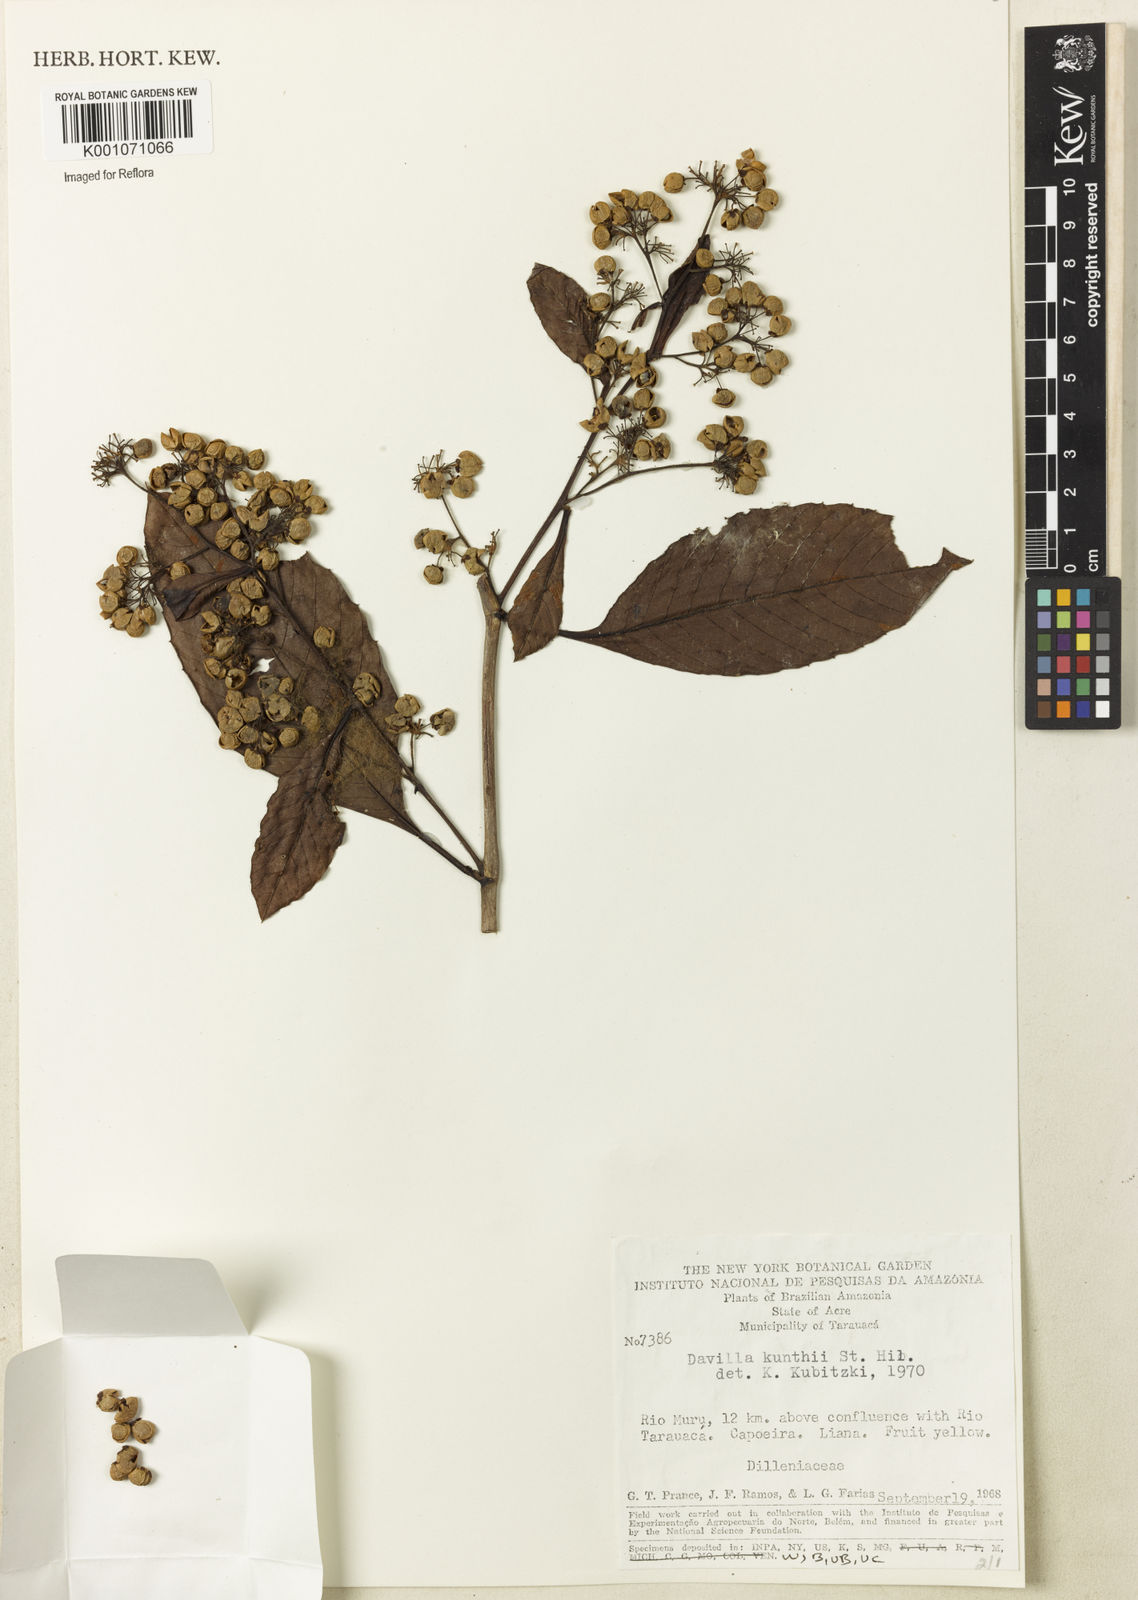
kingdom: Plantae
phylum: Tracheophyta
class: Magnoliopsida
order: Dilleniales
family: Dilleniaceae
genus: Davilla
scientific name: Davilla kunthii
